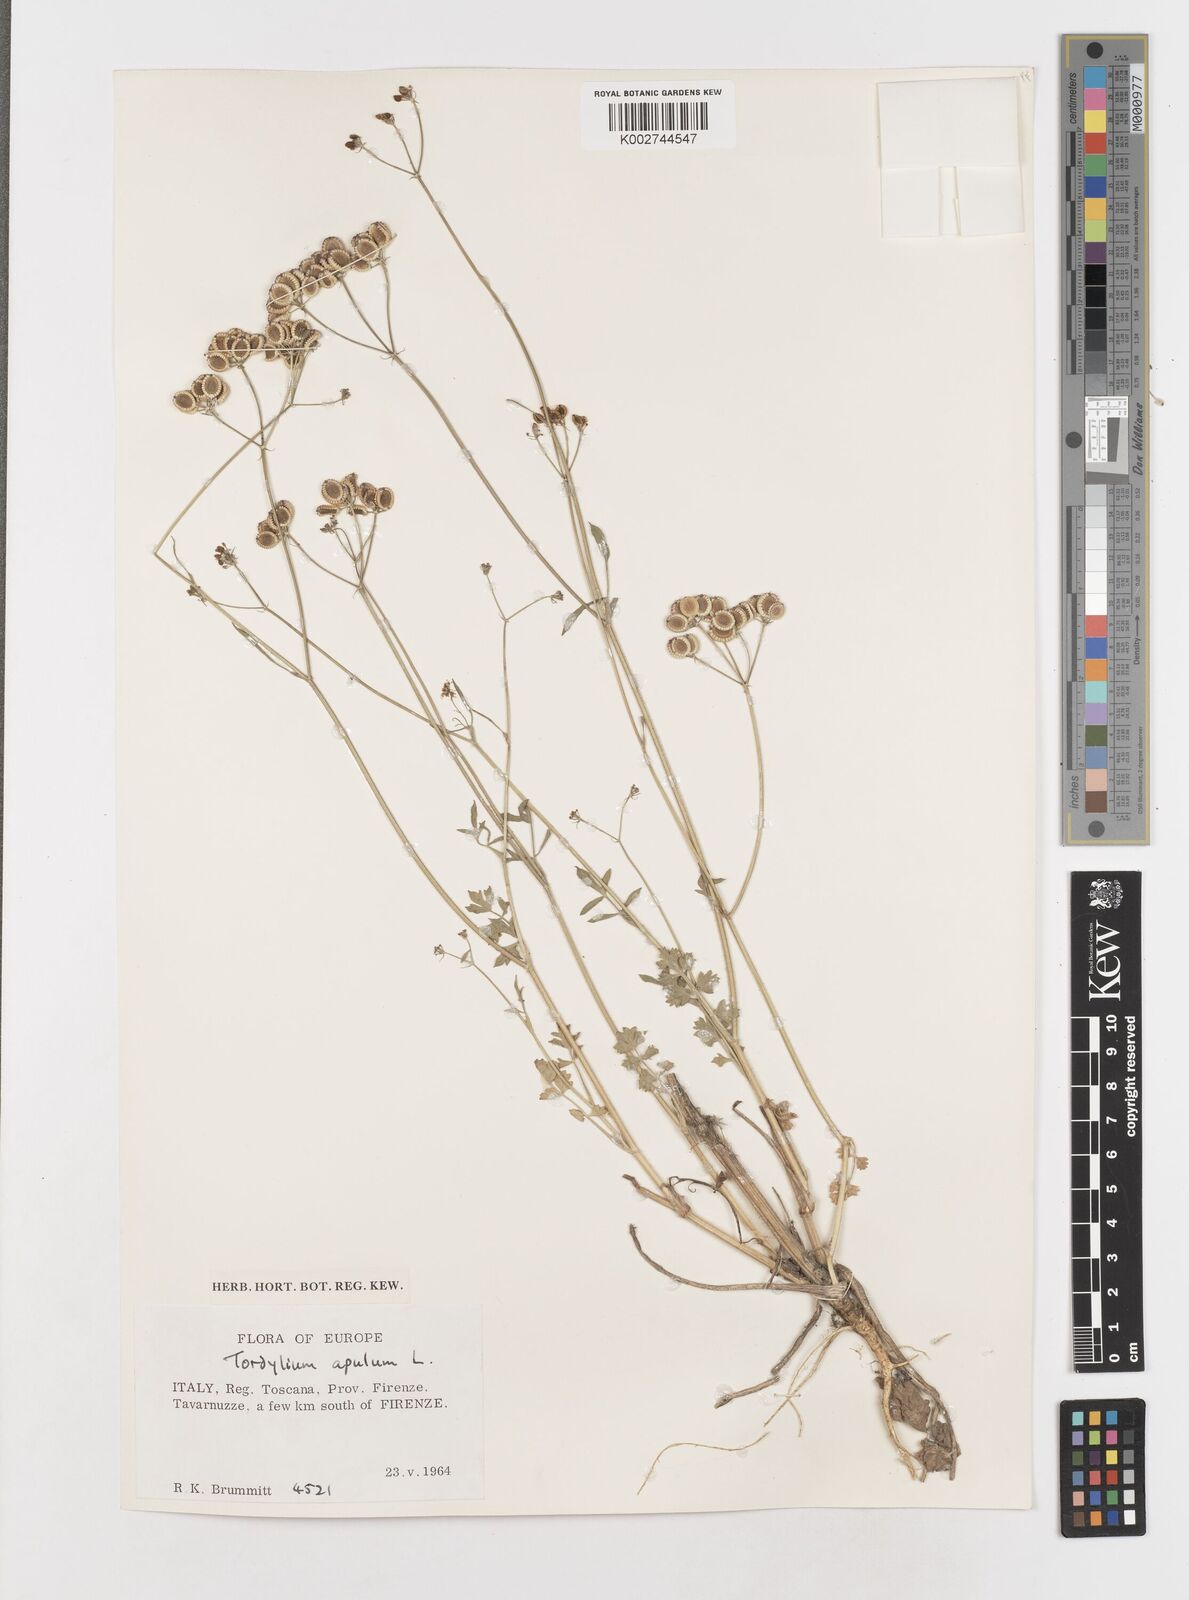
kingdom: Plantae
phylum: Tracheophyta
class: Magnoliopsida
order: Apiales
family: Apiaceae
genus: Tordylium
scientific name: Tordylium apulum
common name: Mediterranean hartwort
